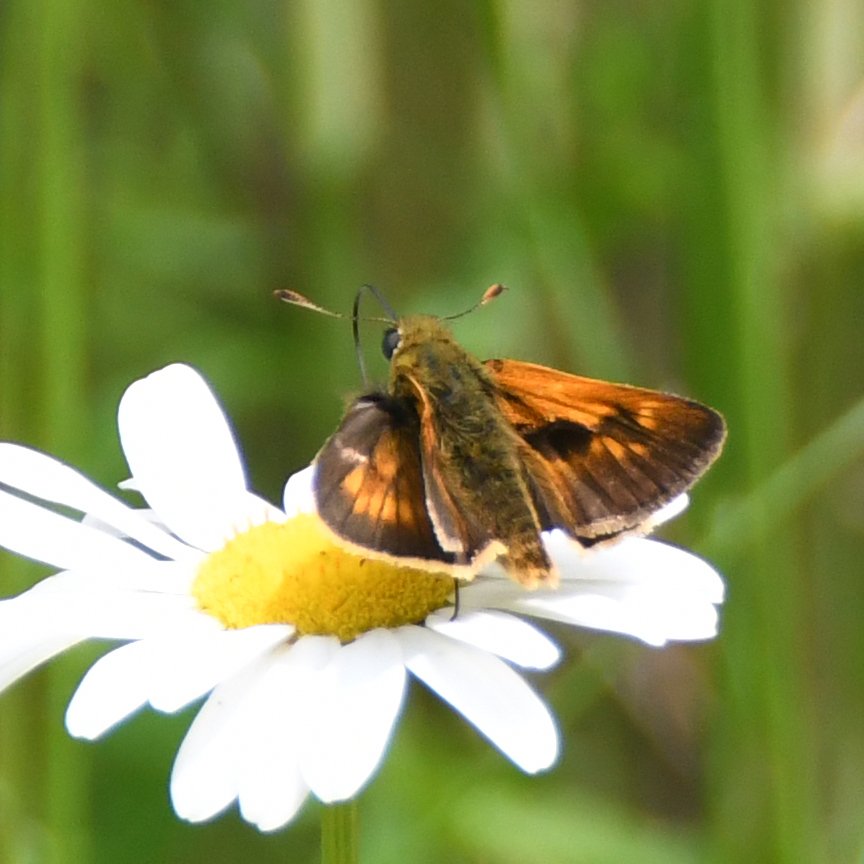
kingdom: Animalia
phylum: Arthropoda
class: Insecta
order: Lepidoptera
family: Hesperiidae
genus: Polites
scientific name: Polites
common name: Long Dash Skipper
